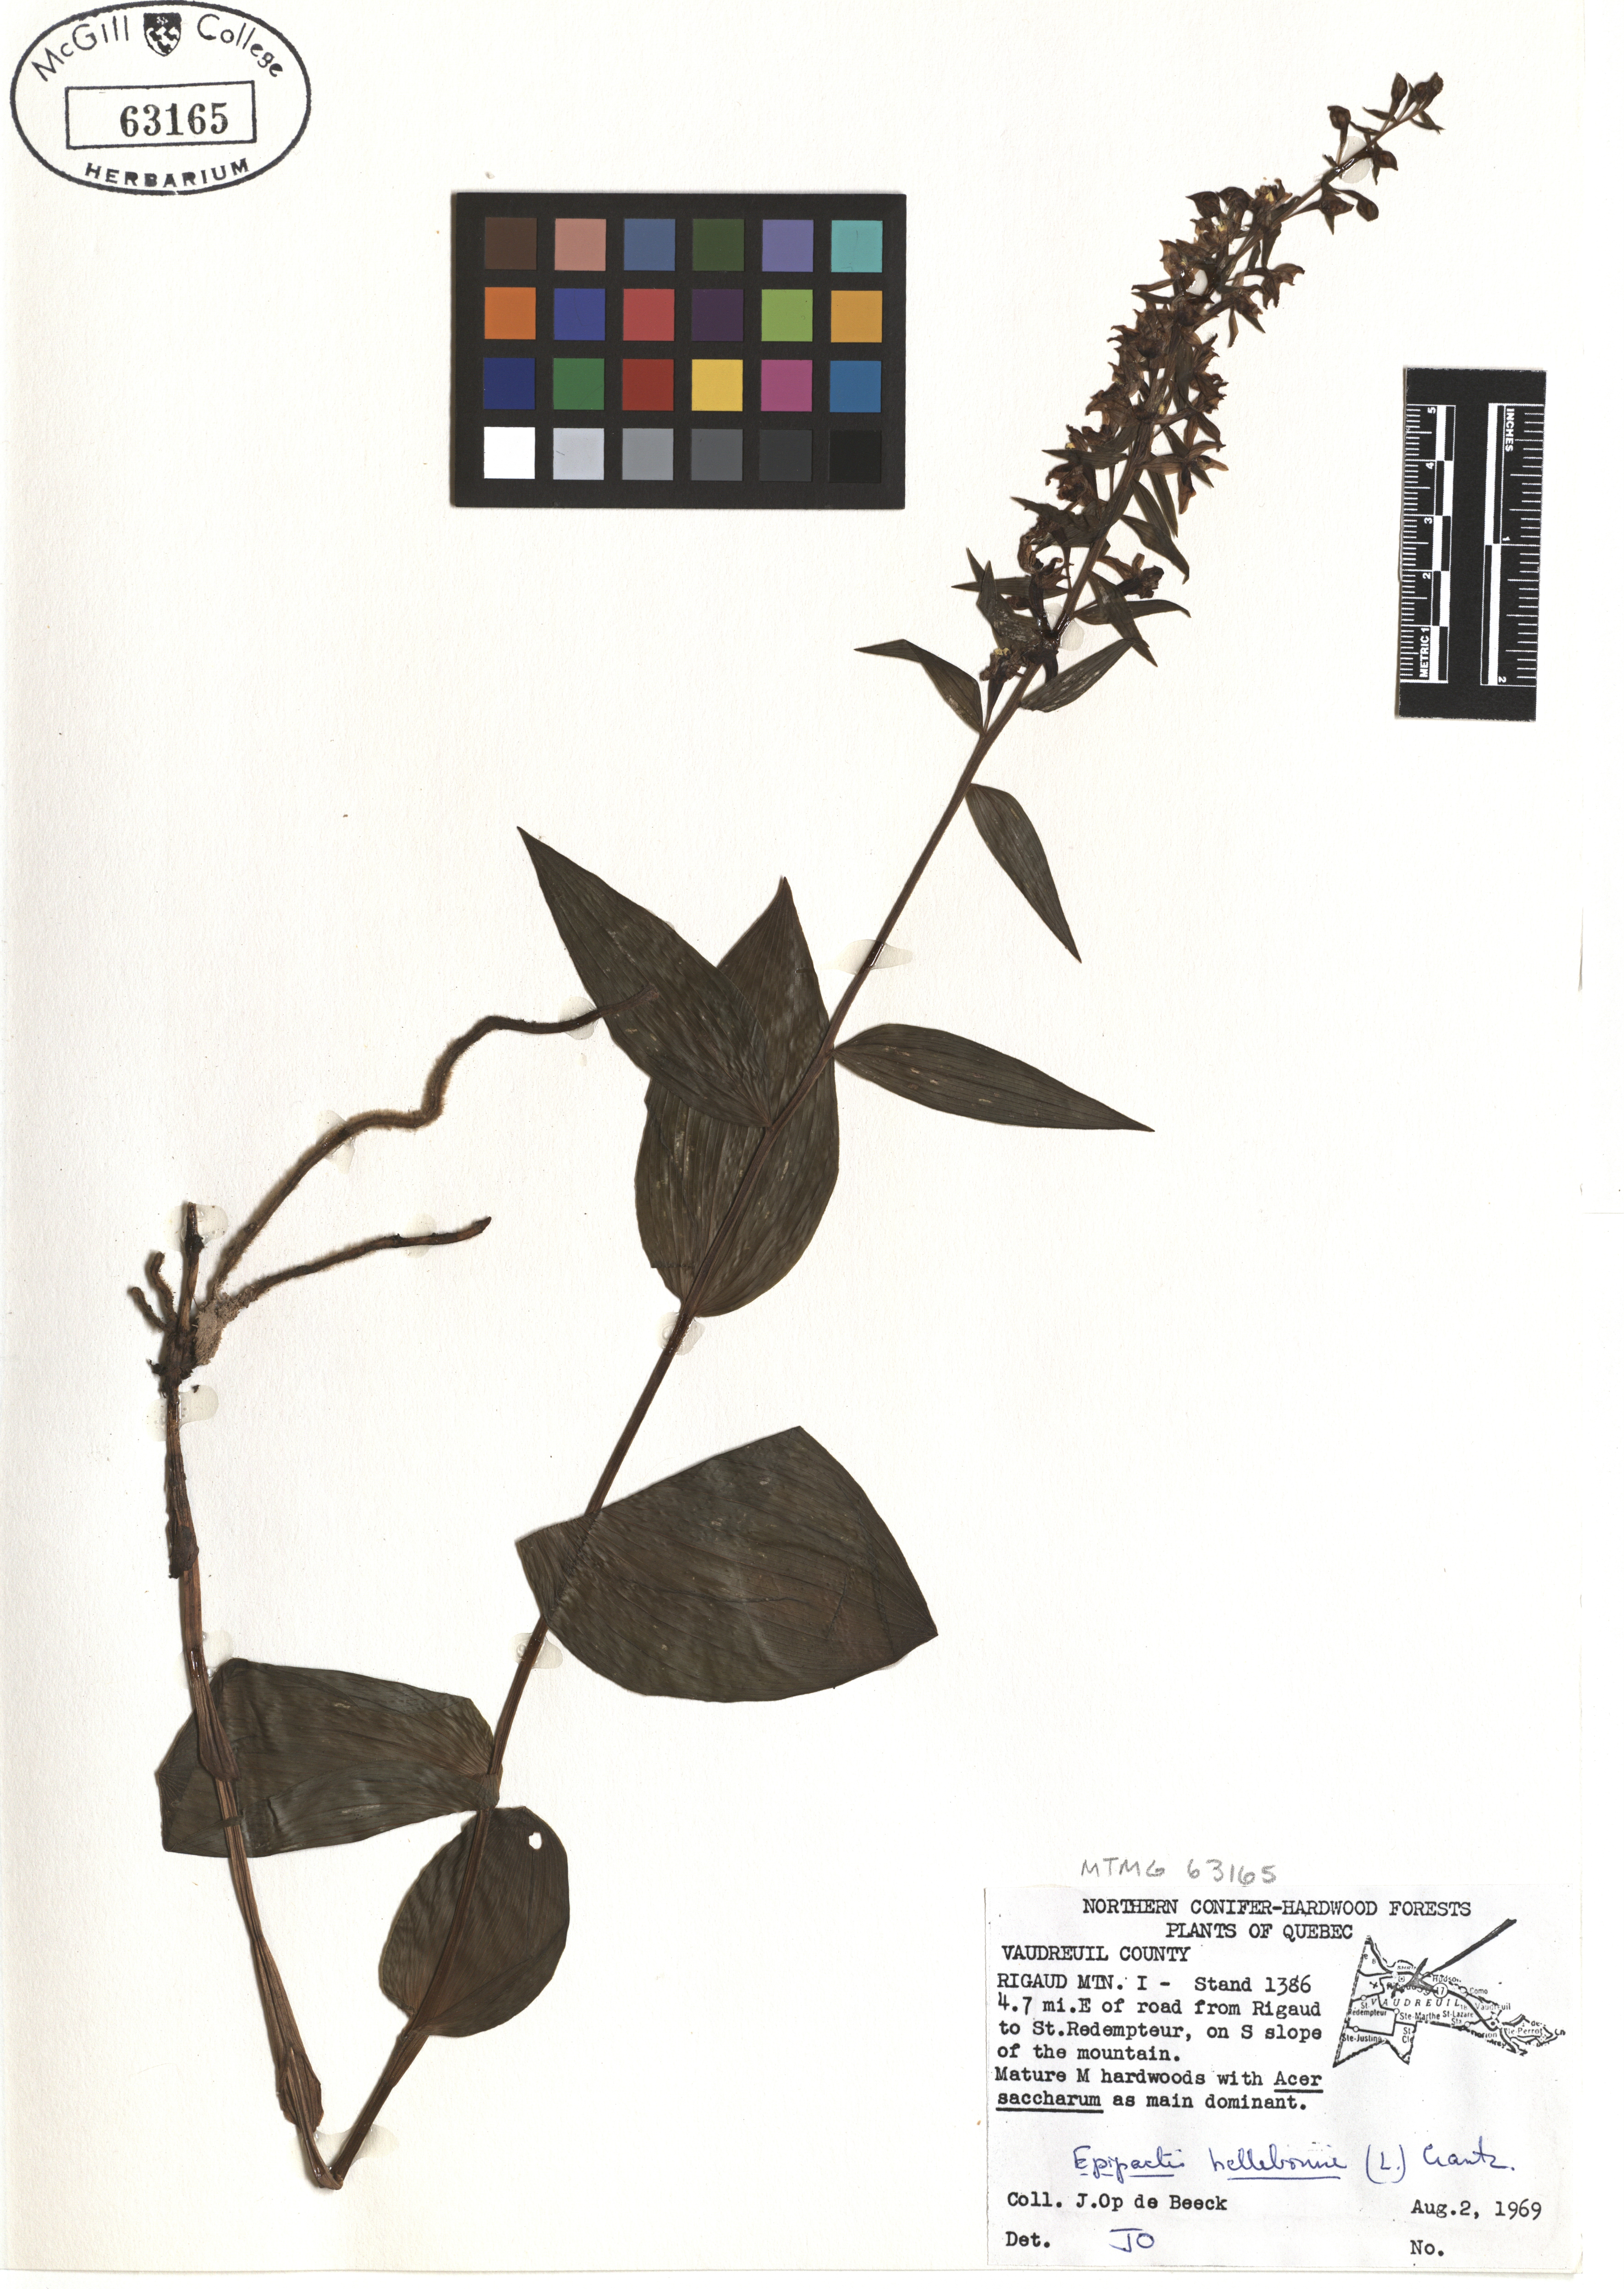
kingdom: Plantae
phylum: Tracheophyta
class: Liliopsida
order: Asparagales
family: Orchidaceae
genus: Epipactis
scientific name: Epipactis helleborine
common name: Broad-leaved helleborine
